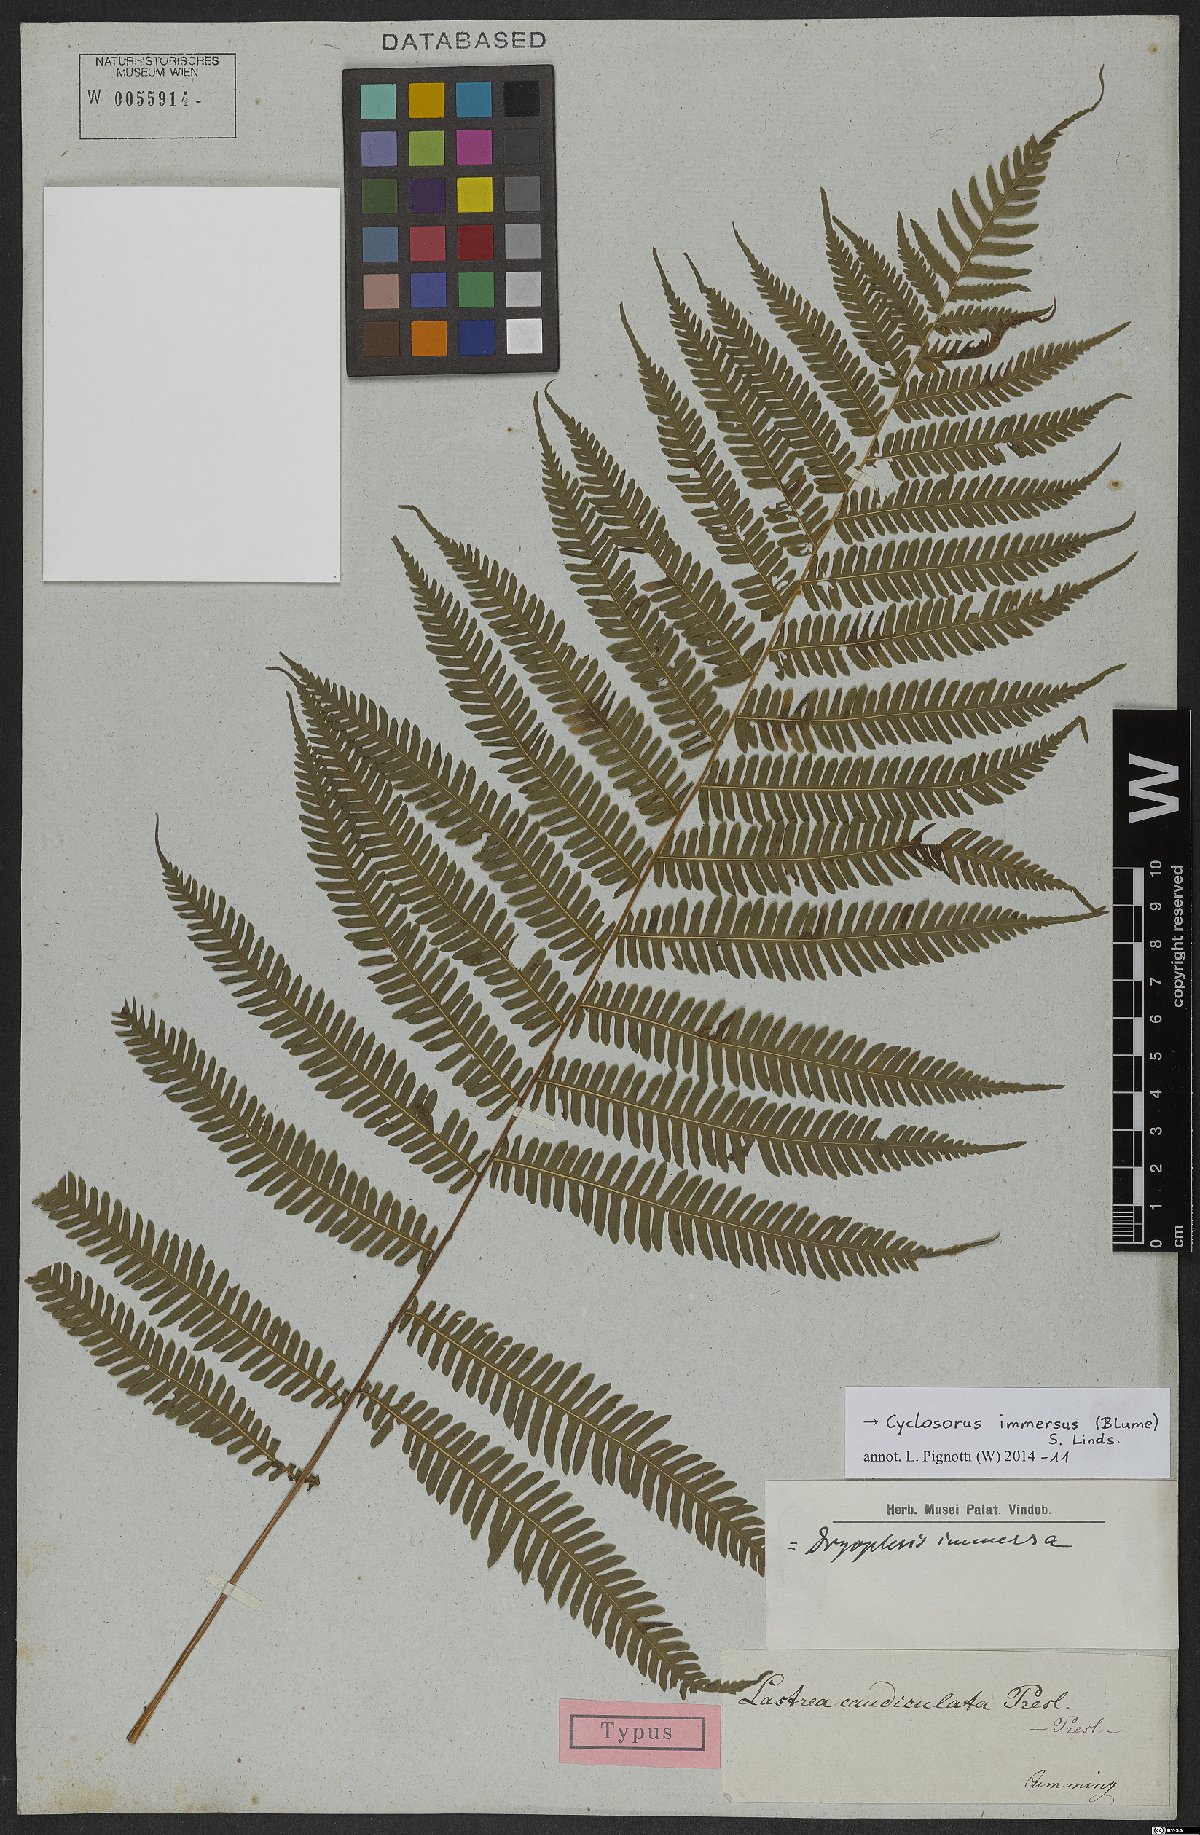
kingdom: Plantae
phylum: Tracheophyta
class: Polypodiopsida
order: Polypodiales
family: Thelypteridaceae
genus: Amblovenatum
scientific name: Amblovenatum immersum
